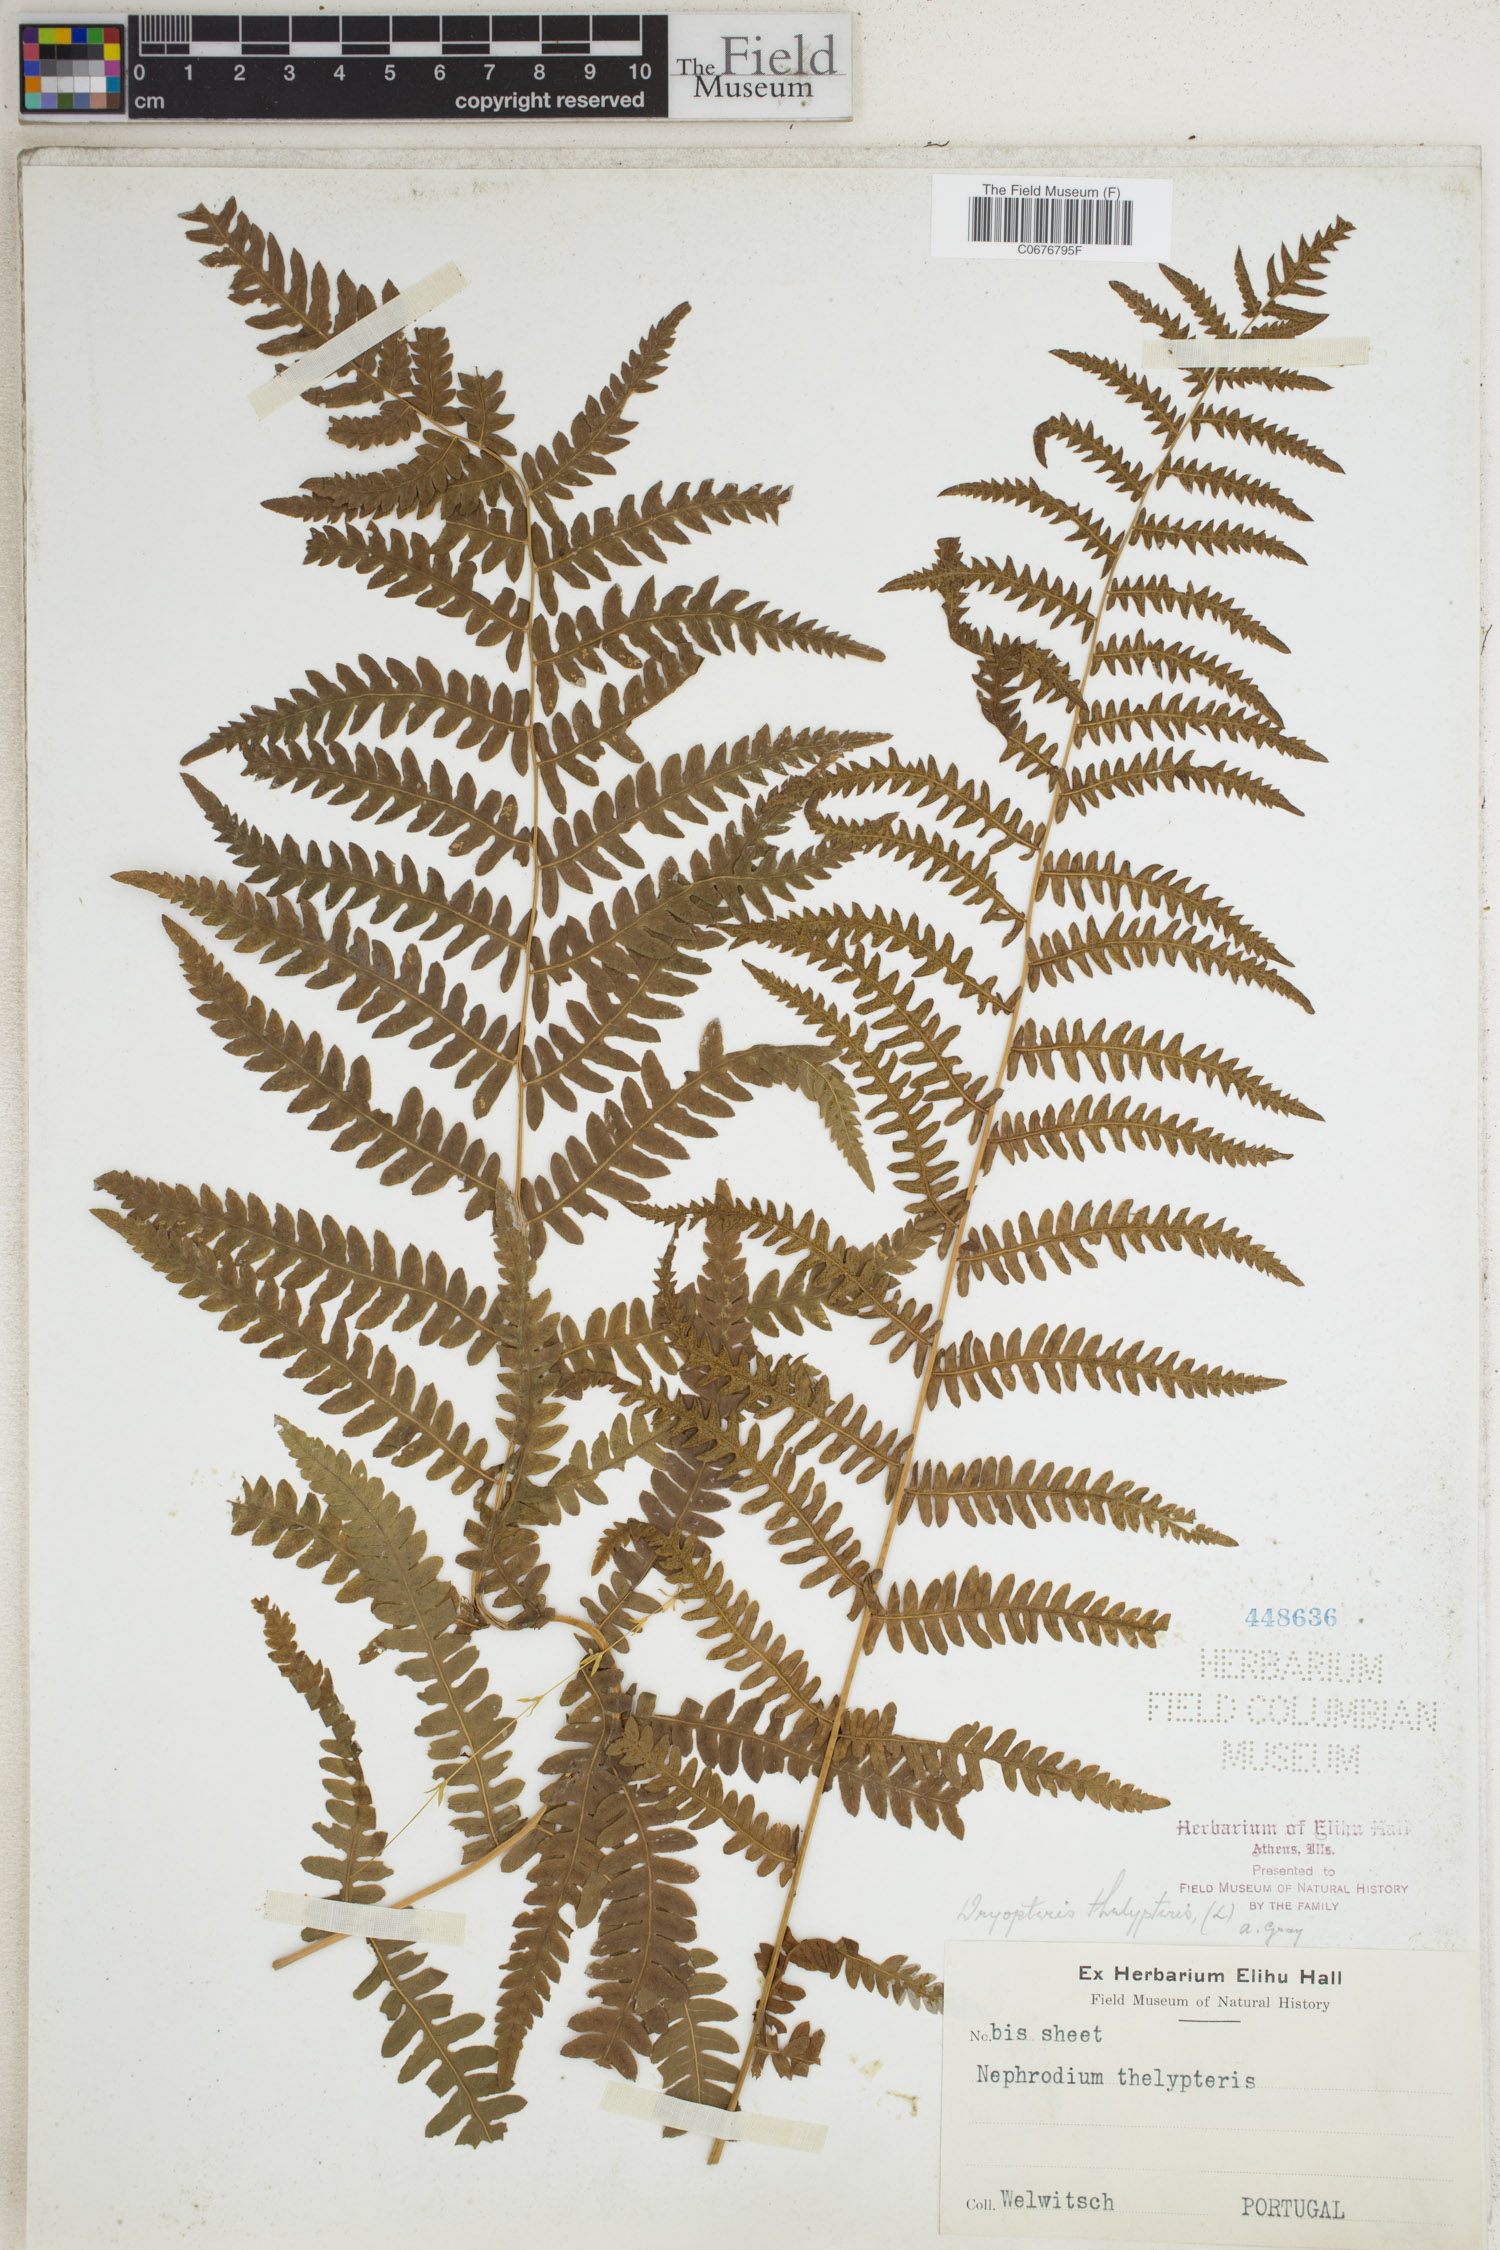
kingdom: Plantae
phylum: Tracheophyta
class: Polypodiopsida
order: Polypodiales
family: Thelypteridaceae
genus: Thelypteris
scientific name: Thelypteris palustris
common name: Marsh fern
